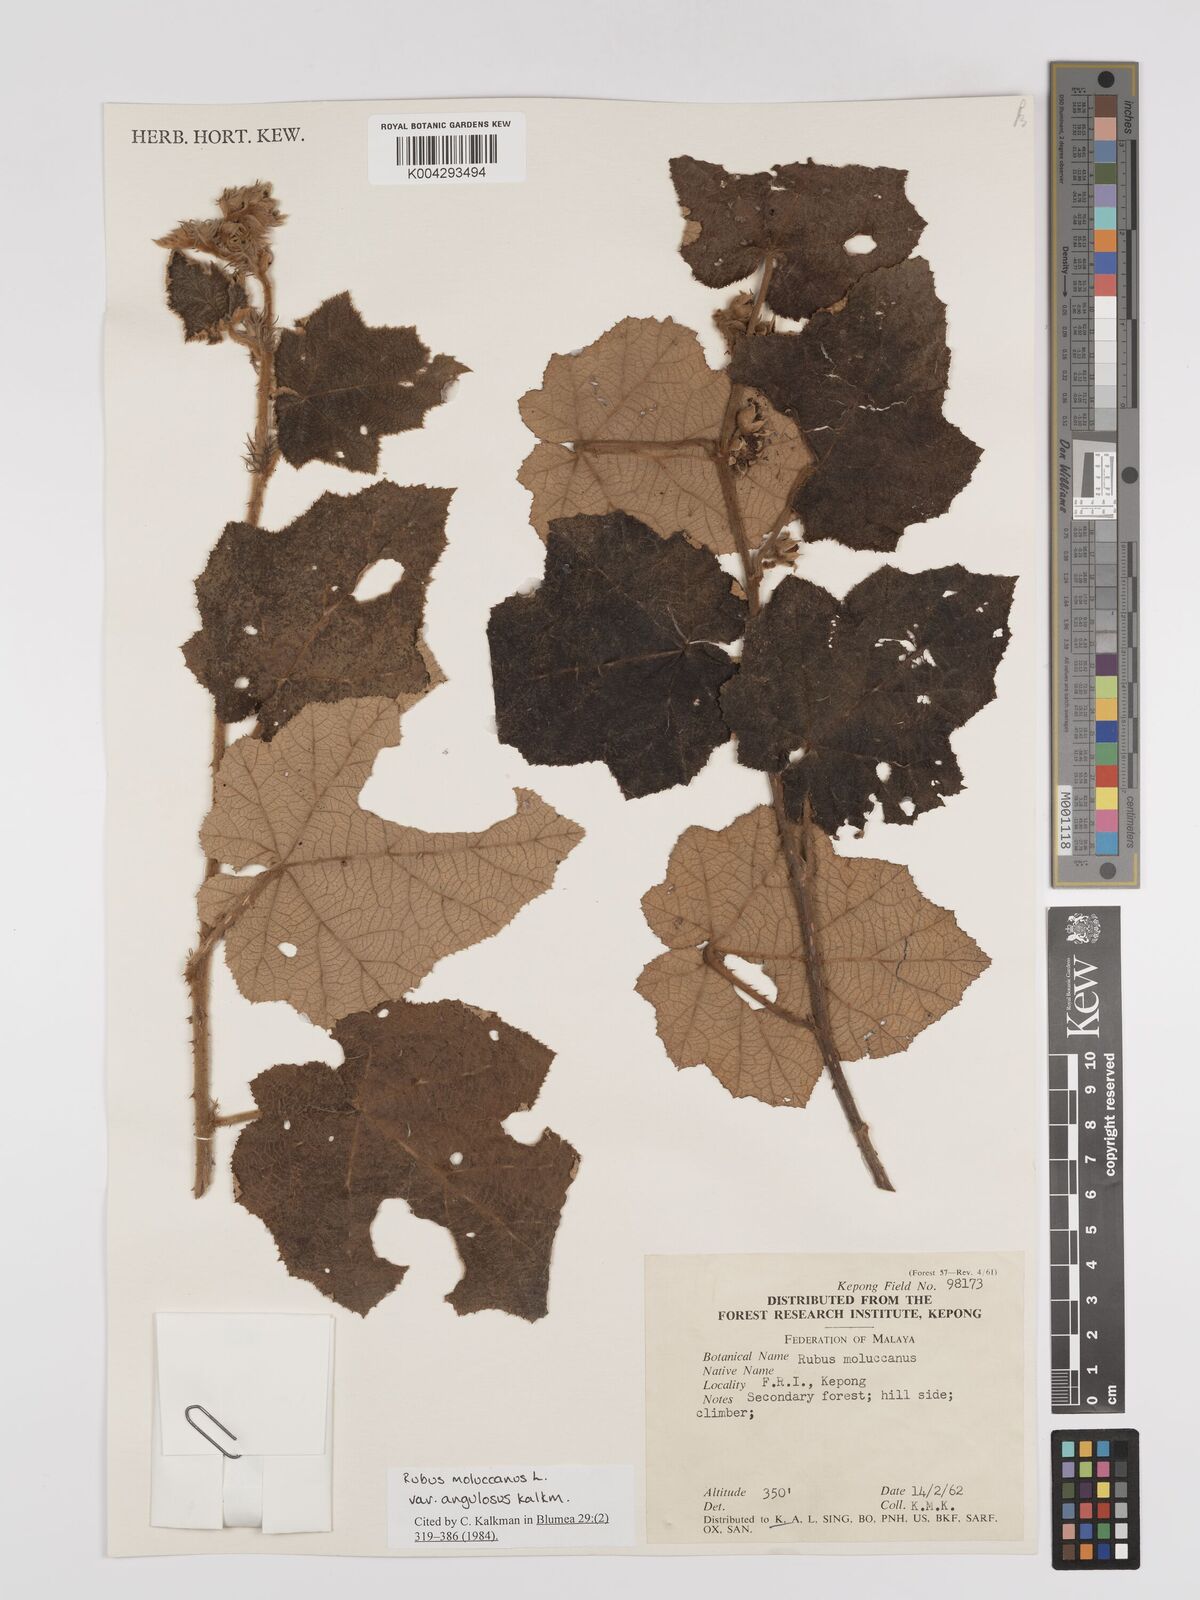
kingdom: Plantae
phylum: Tracheophyta
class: Magnoliopsida
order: Rosales
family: Rosaceae
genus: Rubus
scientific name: Rubus moluccanus
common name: Wild raspberry
